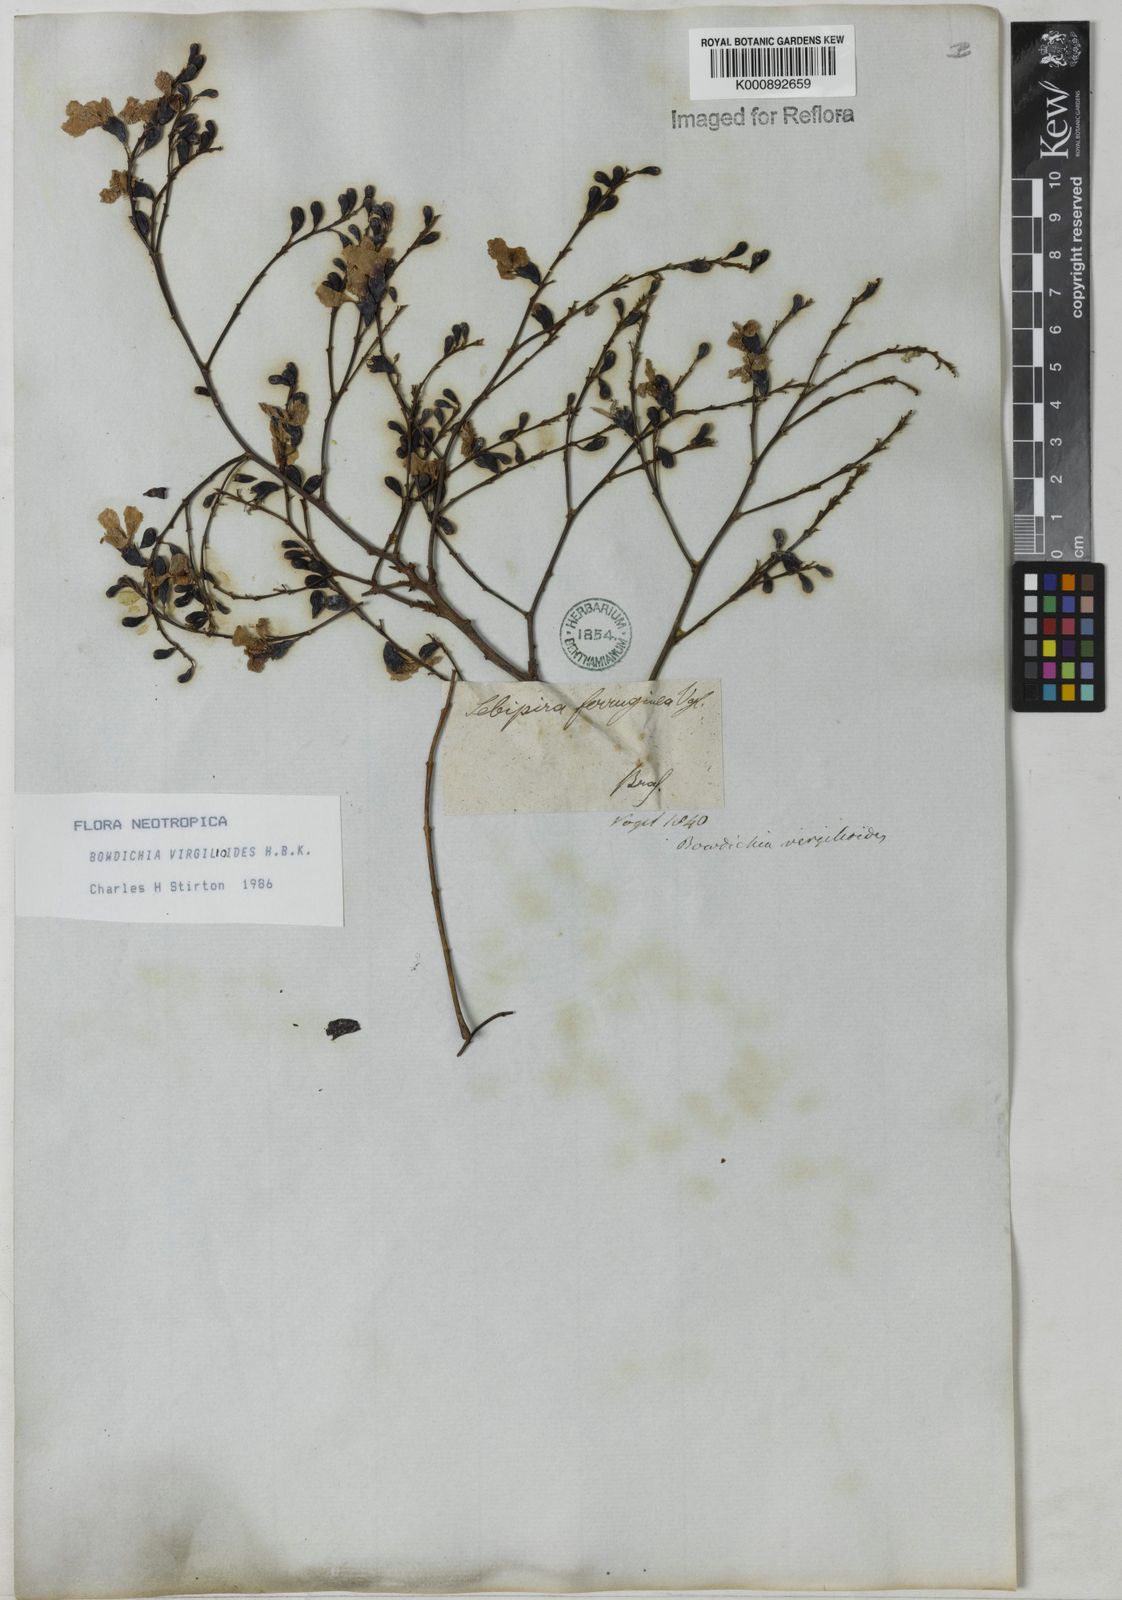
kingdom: Plantae
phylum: Tracheophyta
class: Magnoliopsida
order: Fabales
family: Fabaceae
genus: Bowdichia
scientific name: Bowdichia virgilioides
